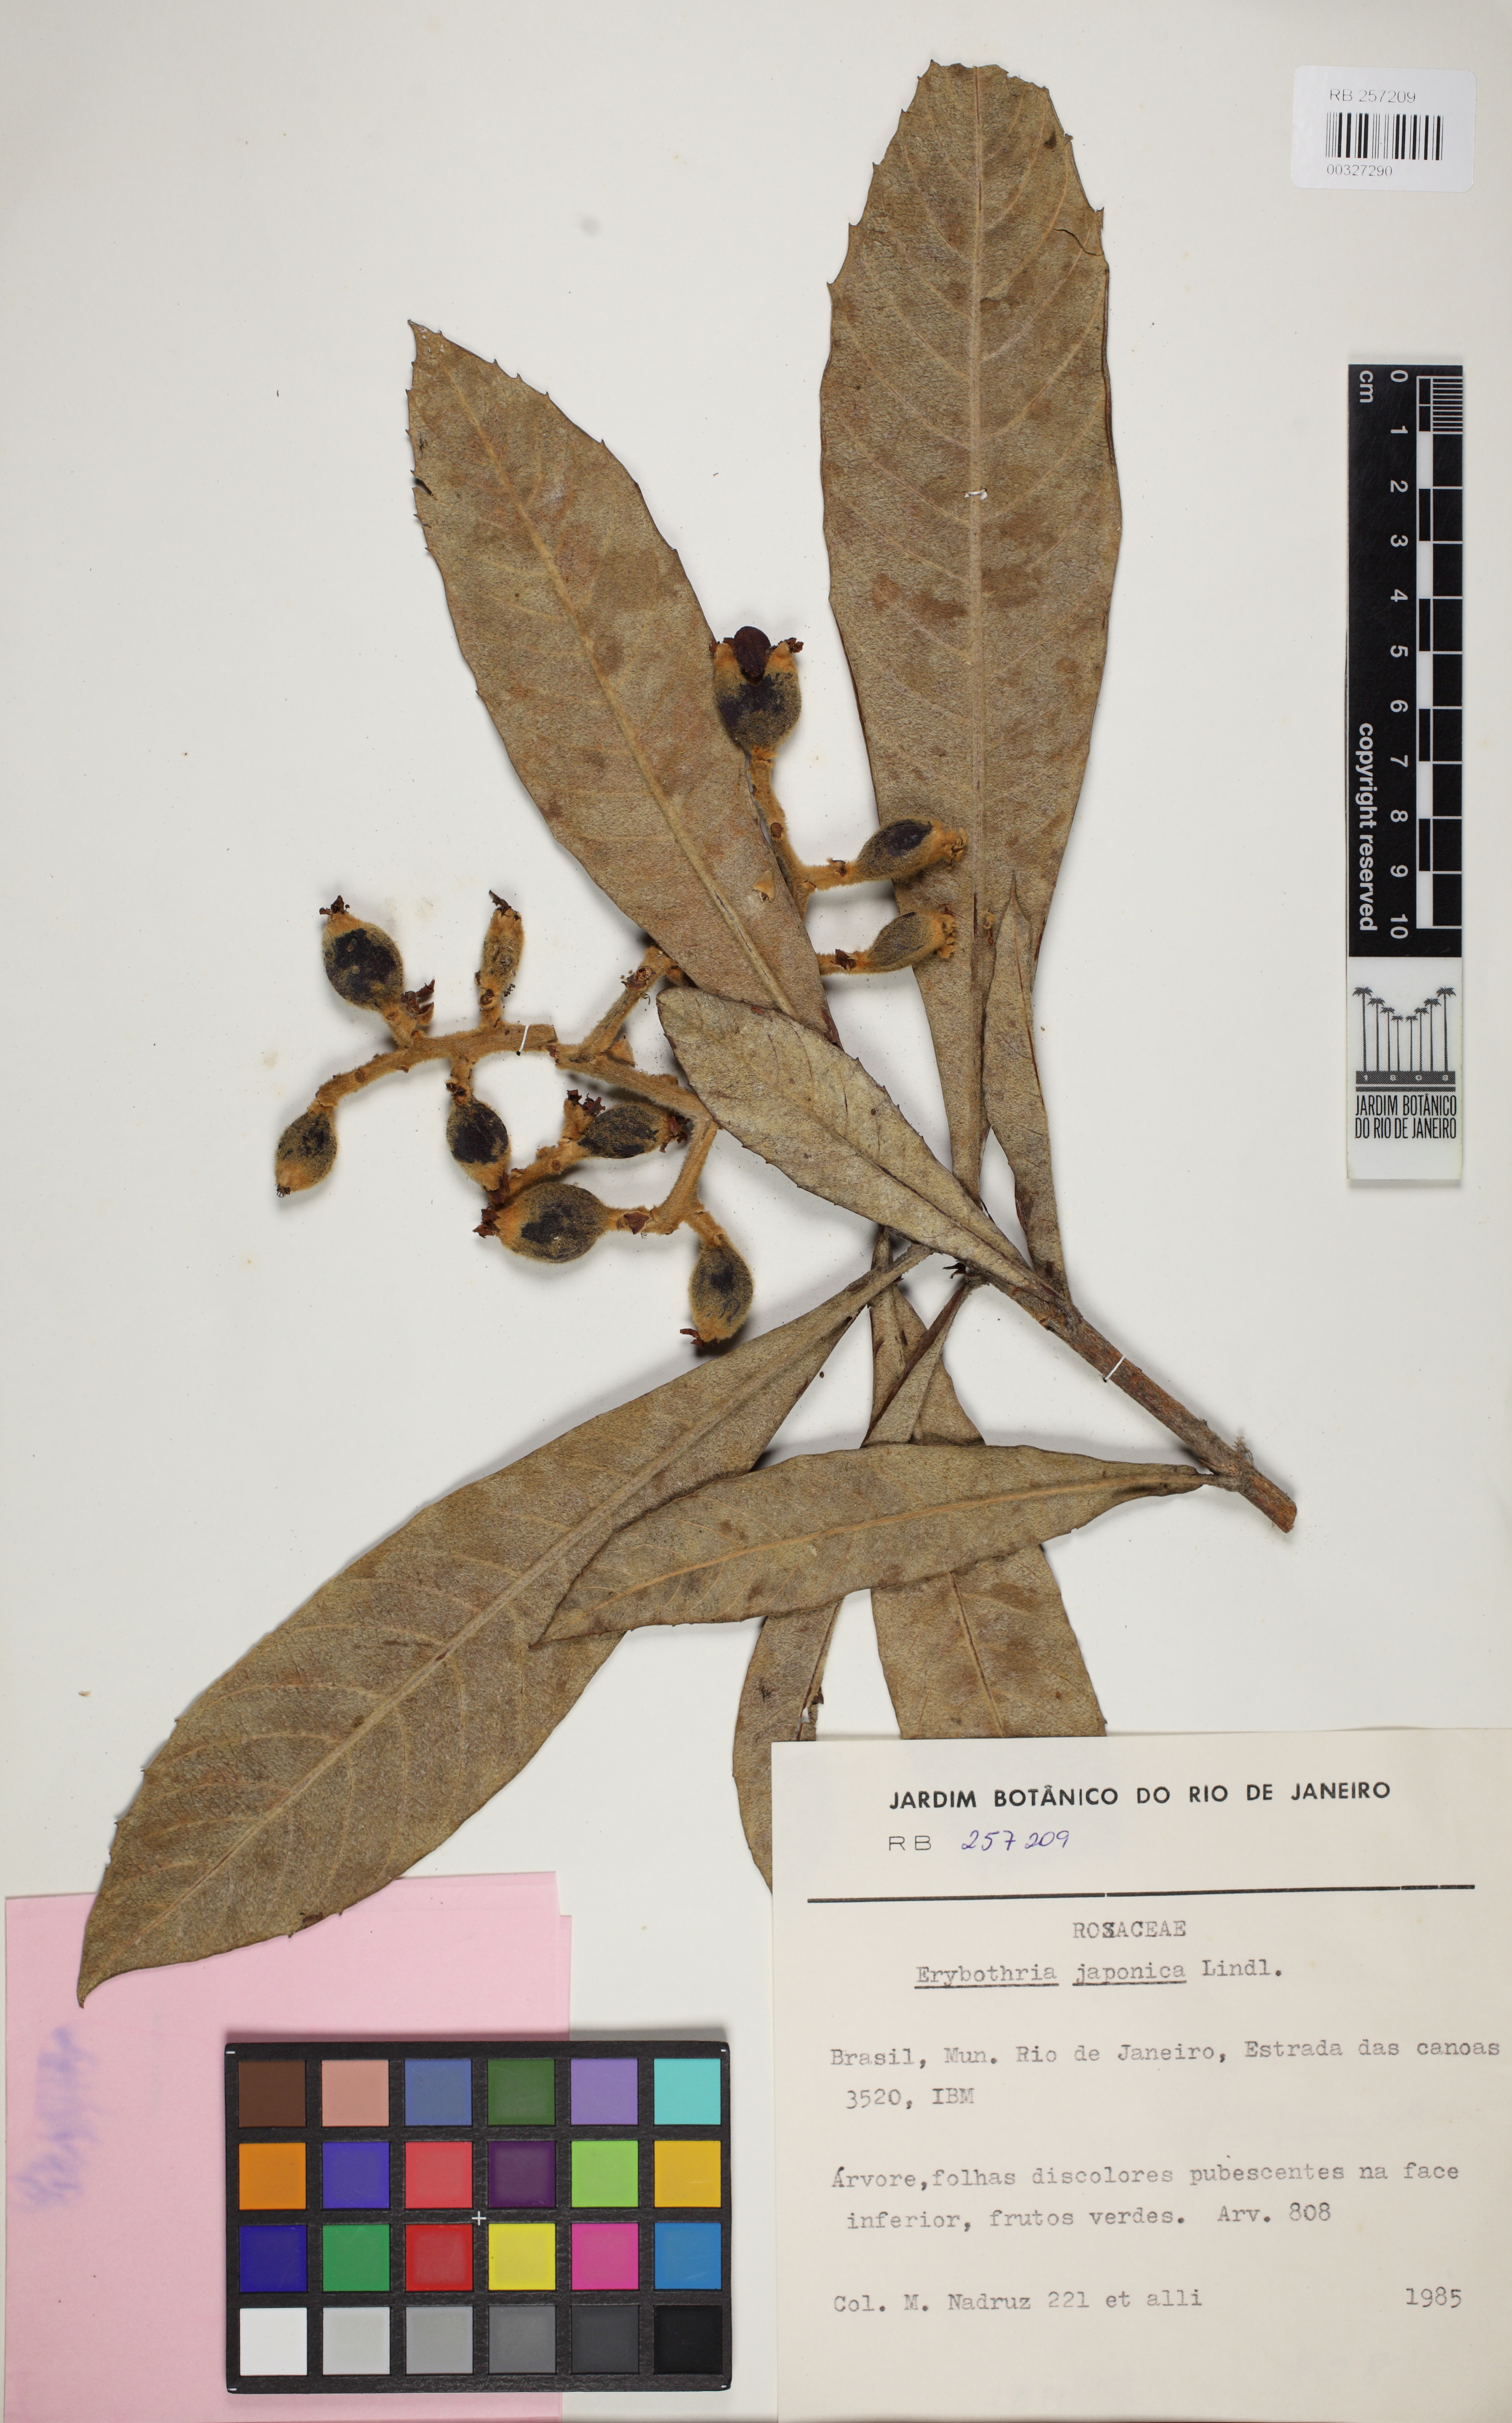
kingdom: Plantae
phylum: Tracheophyta
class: Magnoliopsida
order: Rosales
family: Rosaceae
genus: Rhaphiolepis
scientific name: Rhaphiolepis bibas
